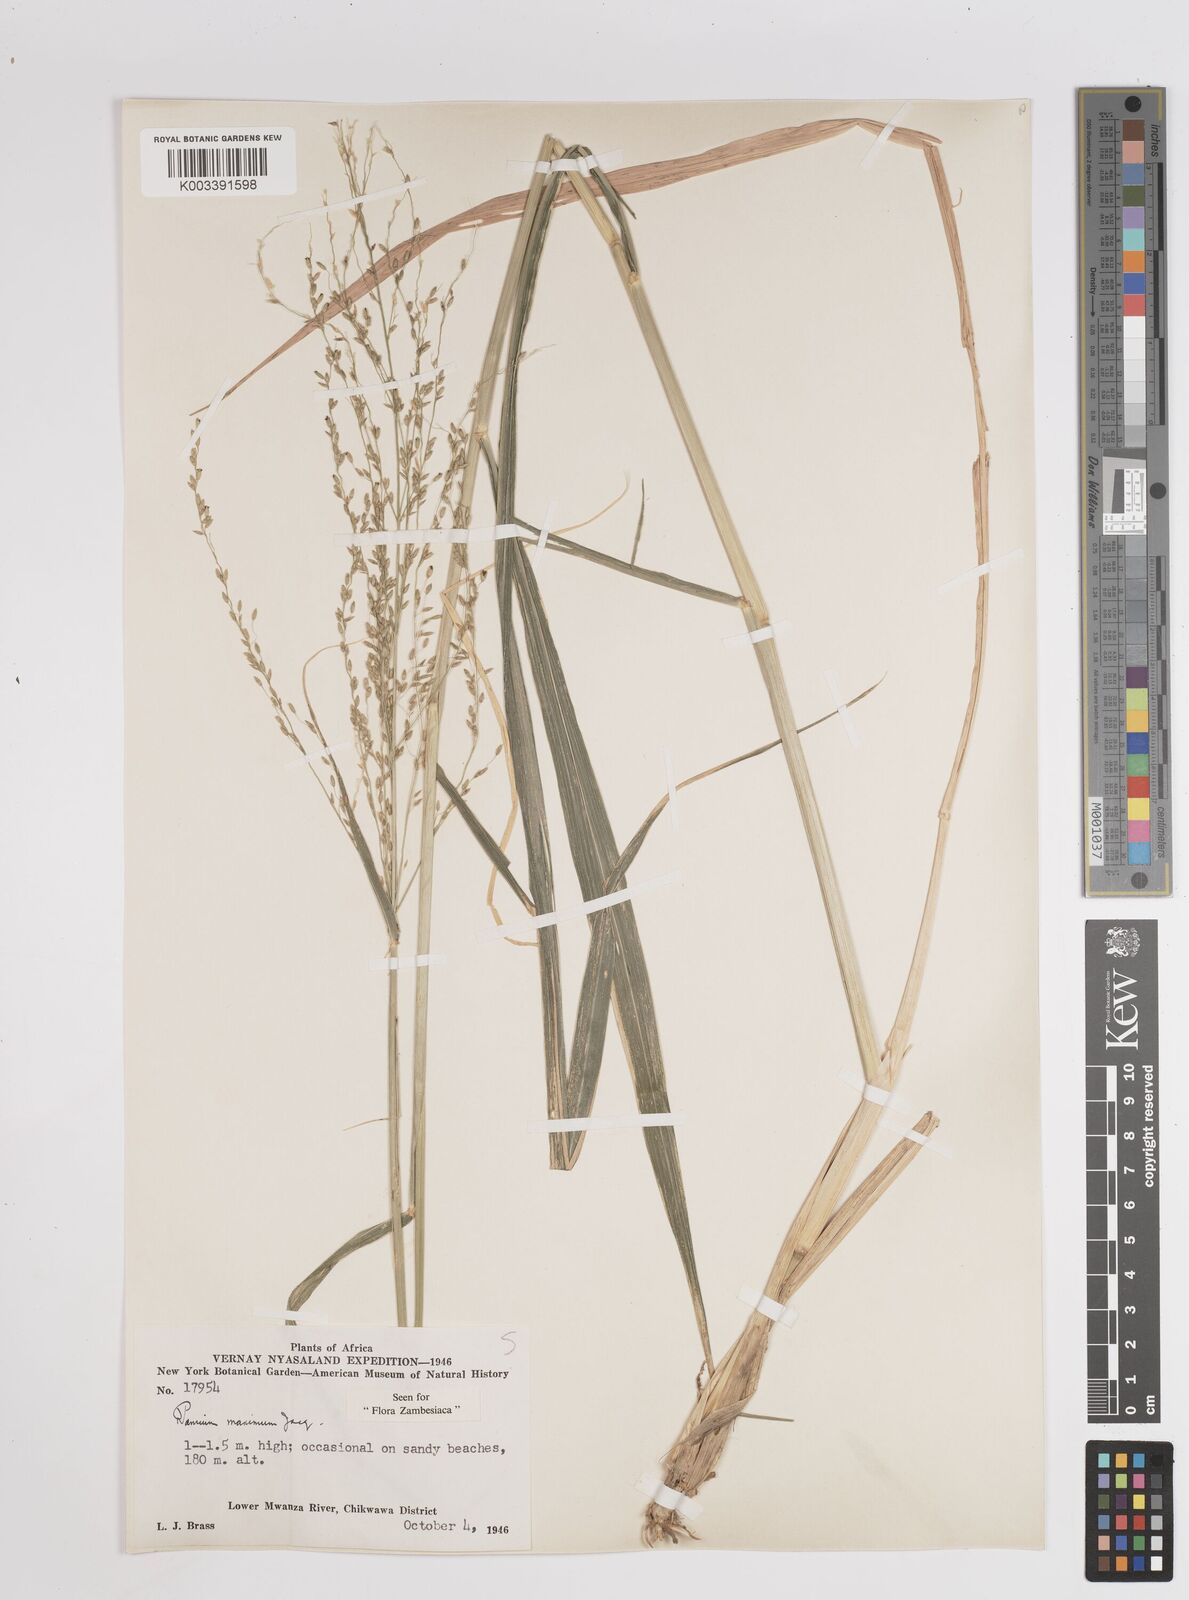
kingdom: Plantae
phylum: Tracheophyta
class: Liliopsida
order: Poales
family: Poaceae
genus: Megathyrsus
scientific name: Megathyrsus maximus
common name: Guineagrass
